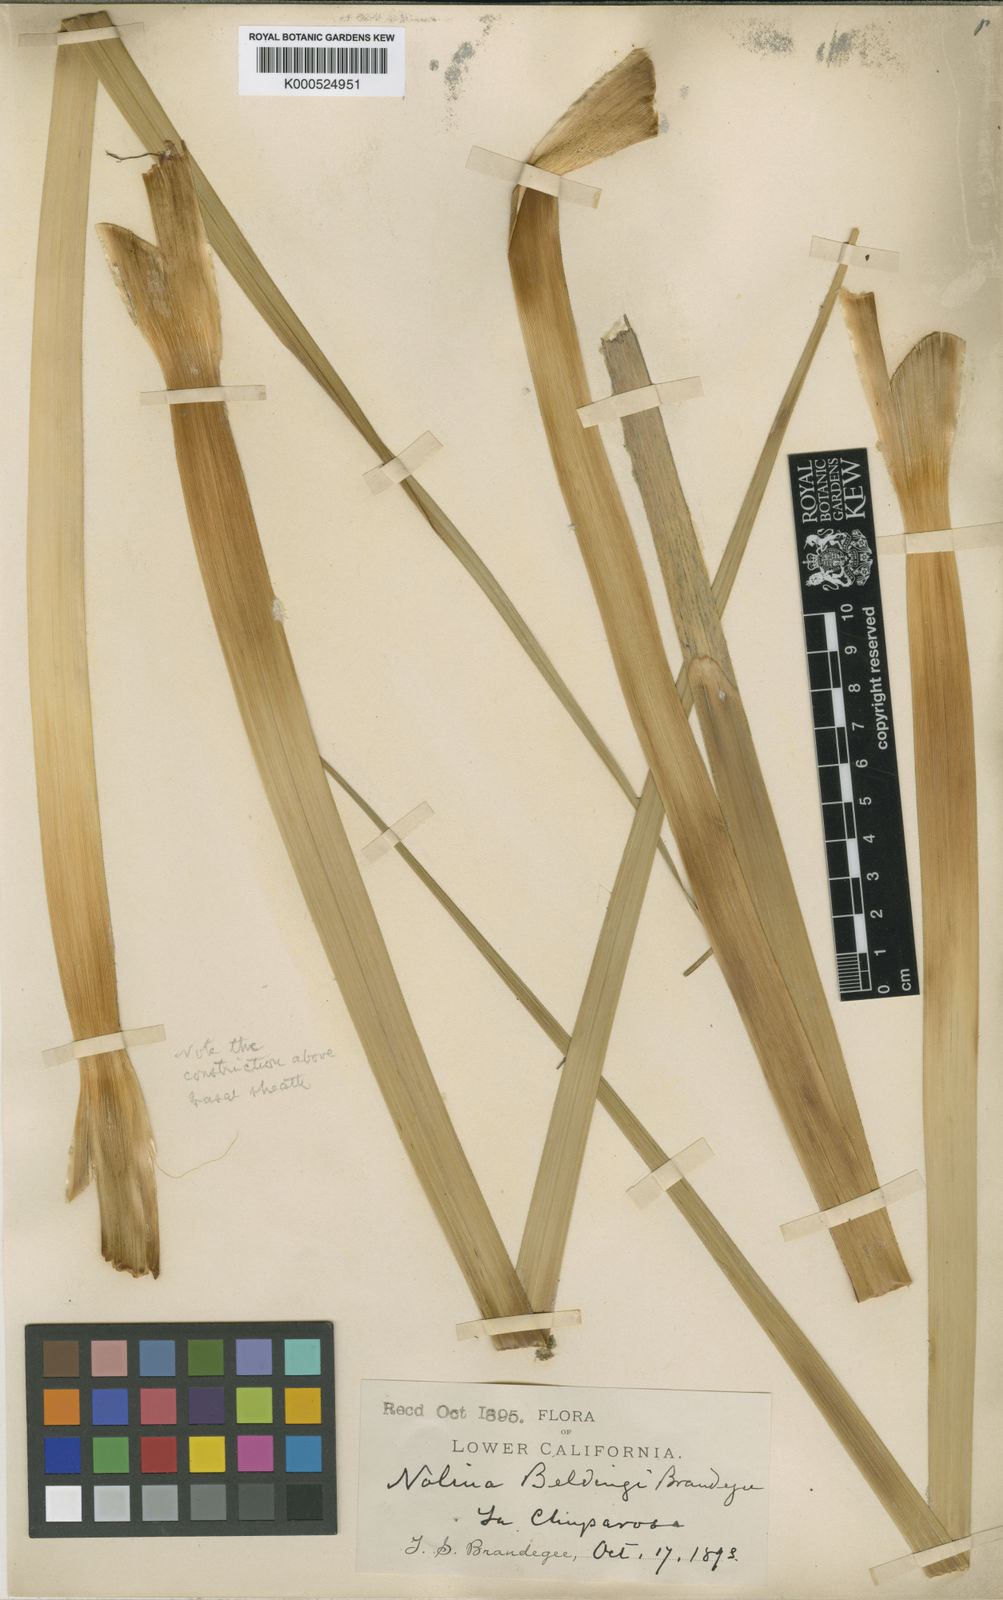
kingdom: Plantae
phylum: Tracheophyta
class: Liliopsida
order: Asparagales
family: Asparagaceae
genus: Nolina
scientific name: Nolina beldingii
